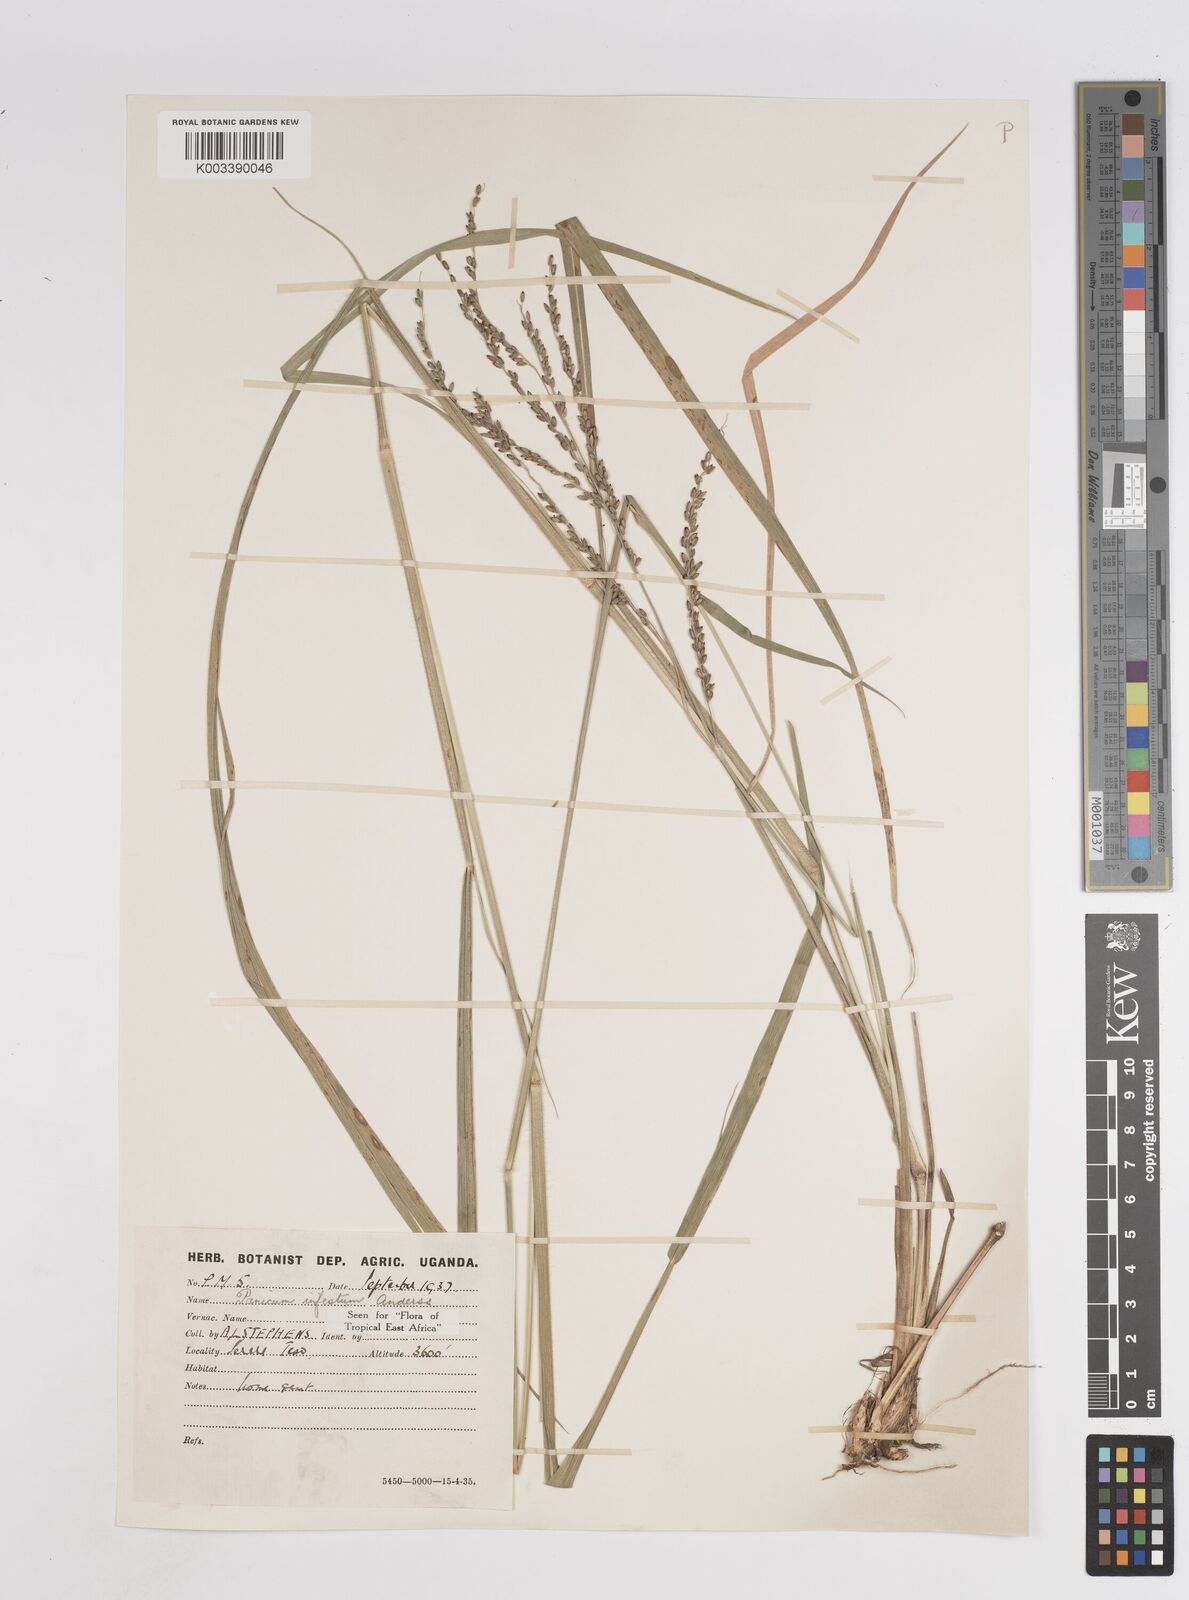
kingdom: Plantae
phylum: Tracheophyta
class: Liliopsida
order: Poales
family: Poaceae
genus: Megathyrsus
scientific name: Megathyrsus infestus
